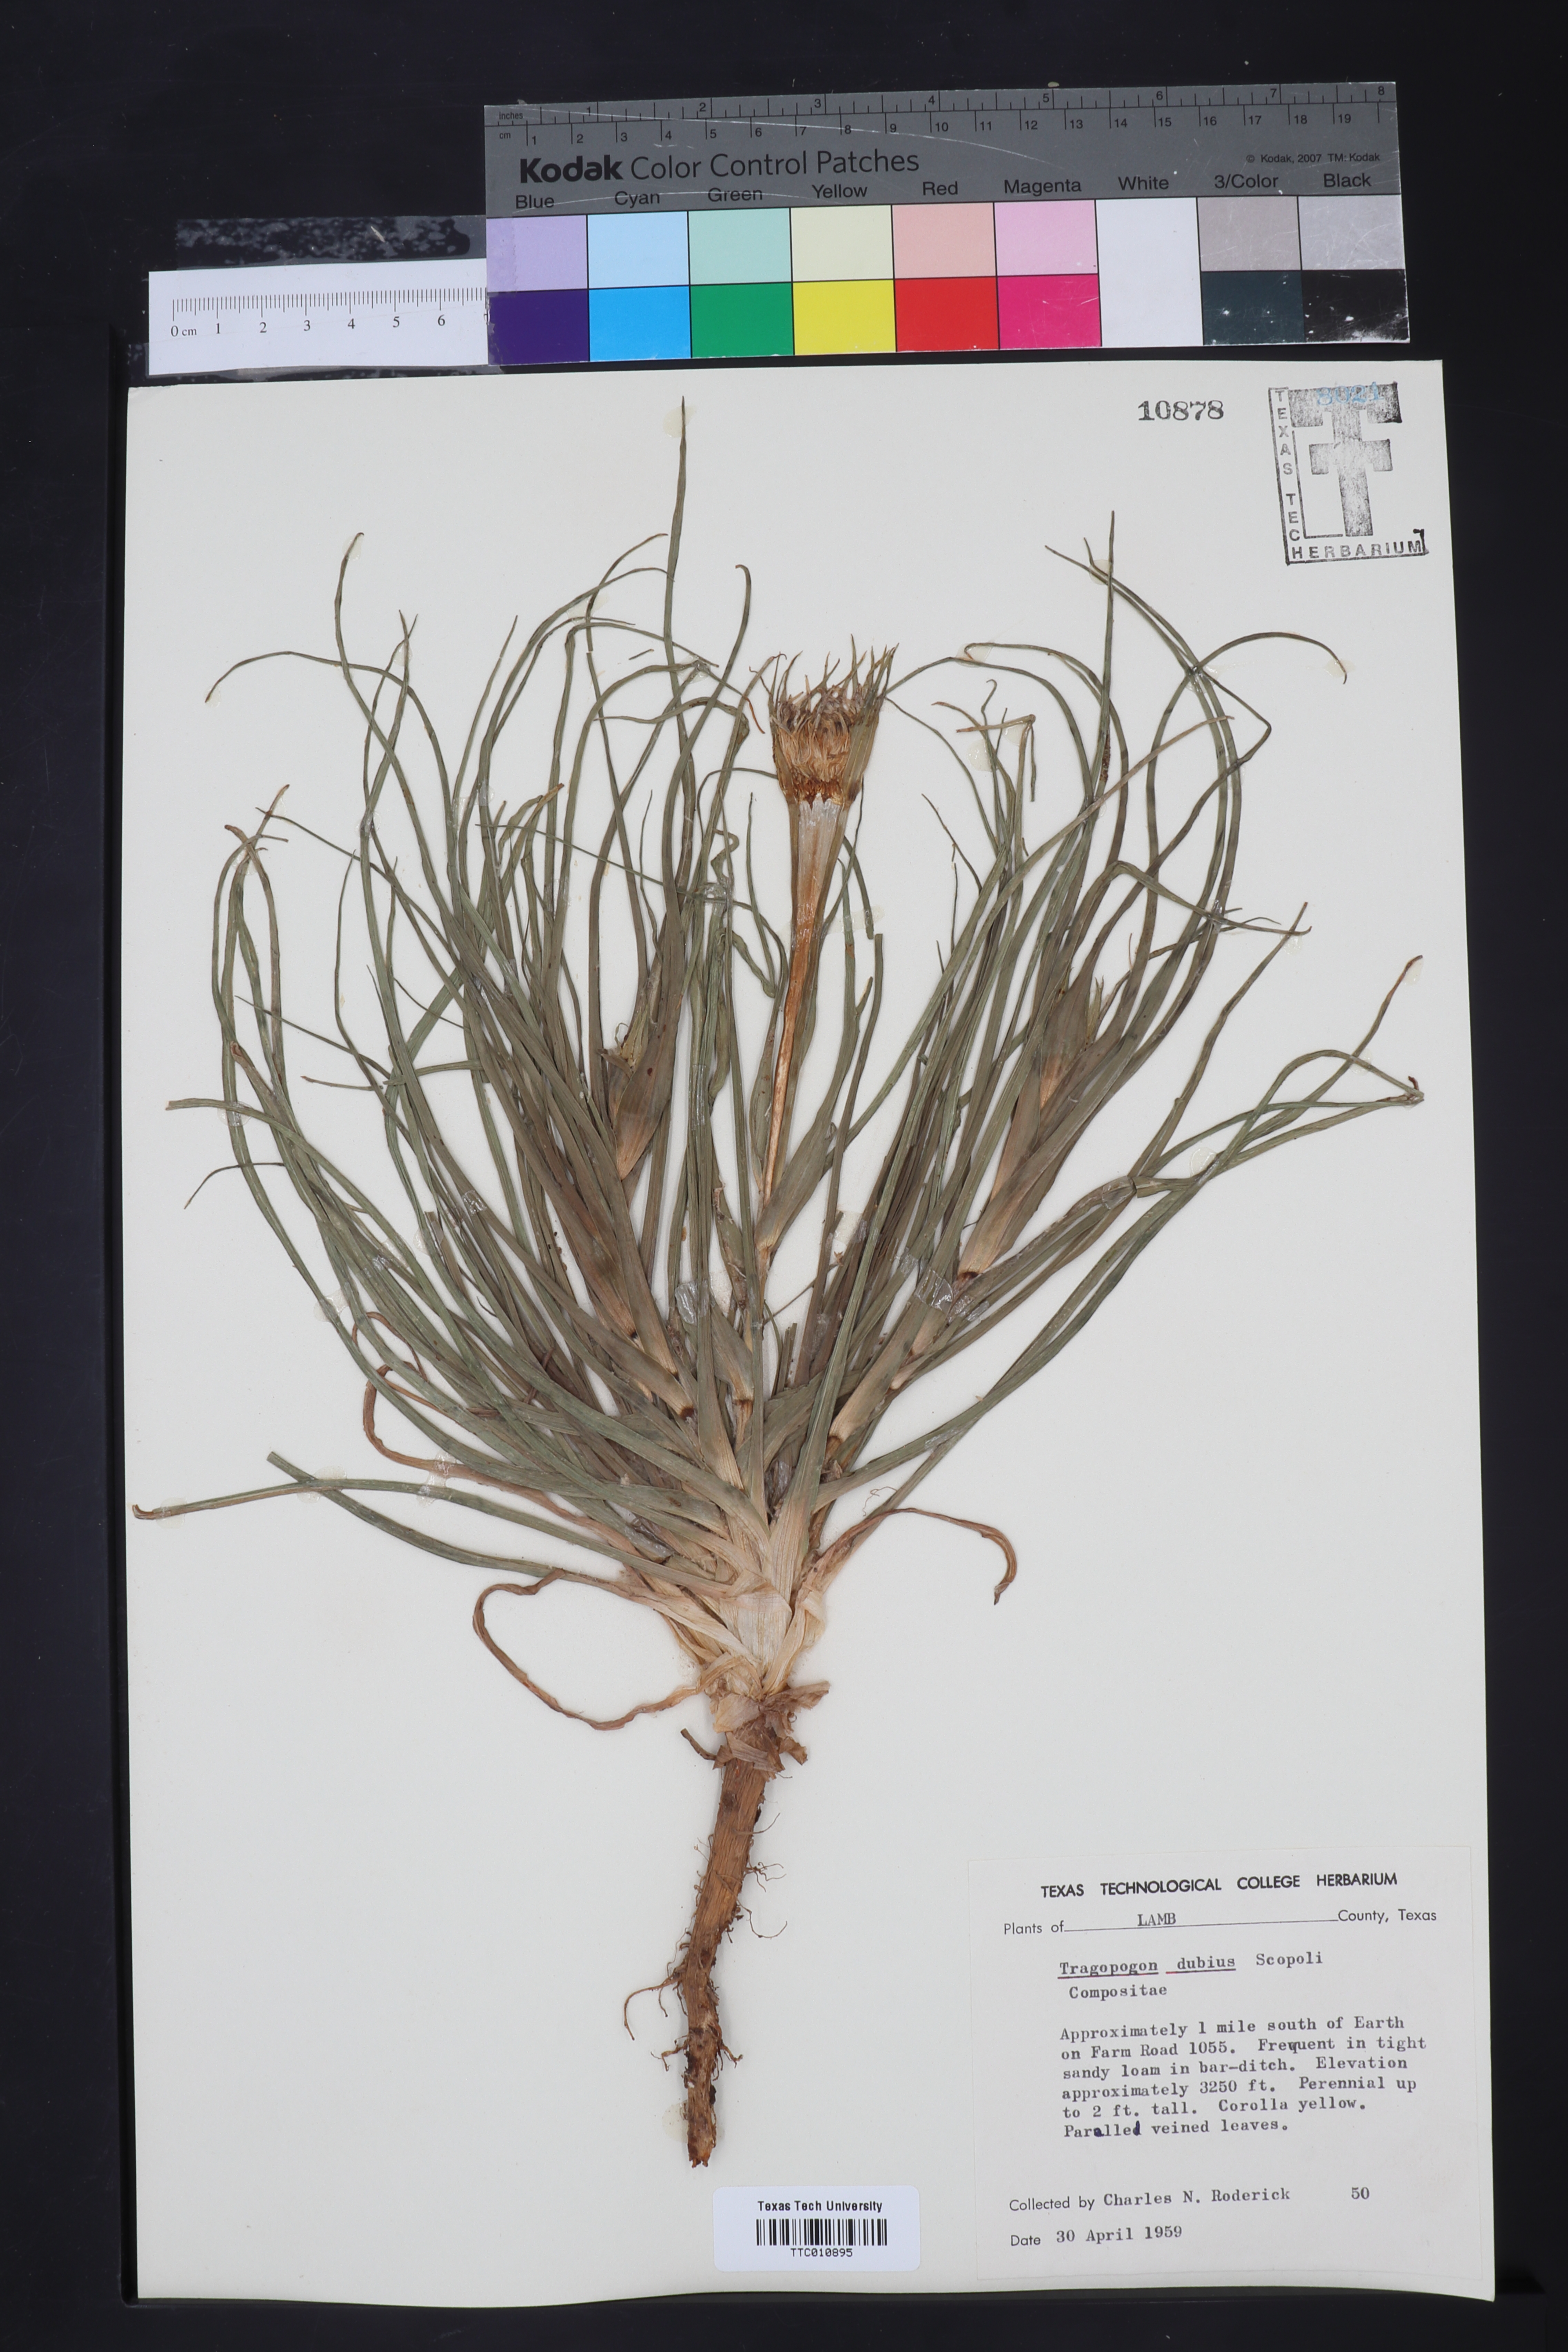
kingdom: Plantae
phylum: Tracheophyta
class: Magnoliopsida
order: Asterales
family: Asteraceae
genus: Tragopogon
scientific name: Tragopogon dubius
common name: Yellow salsify
